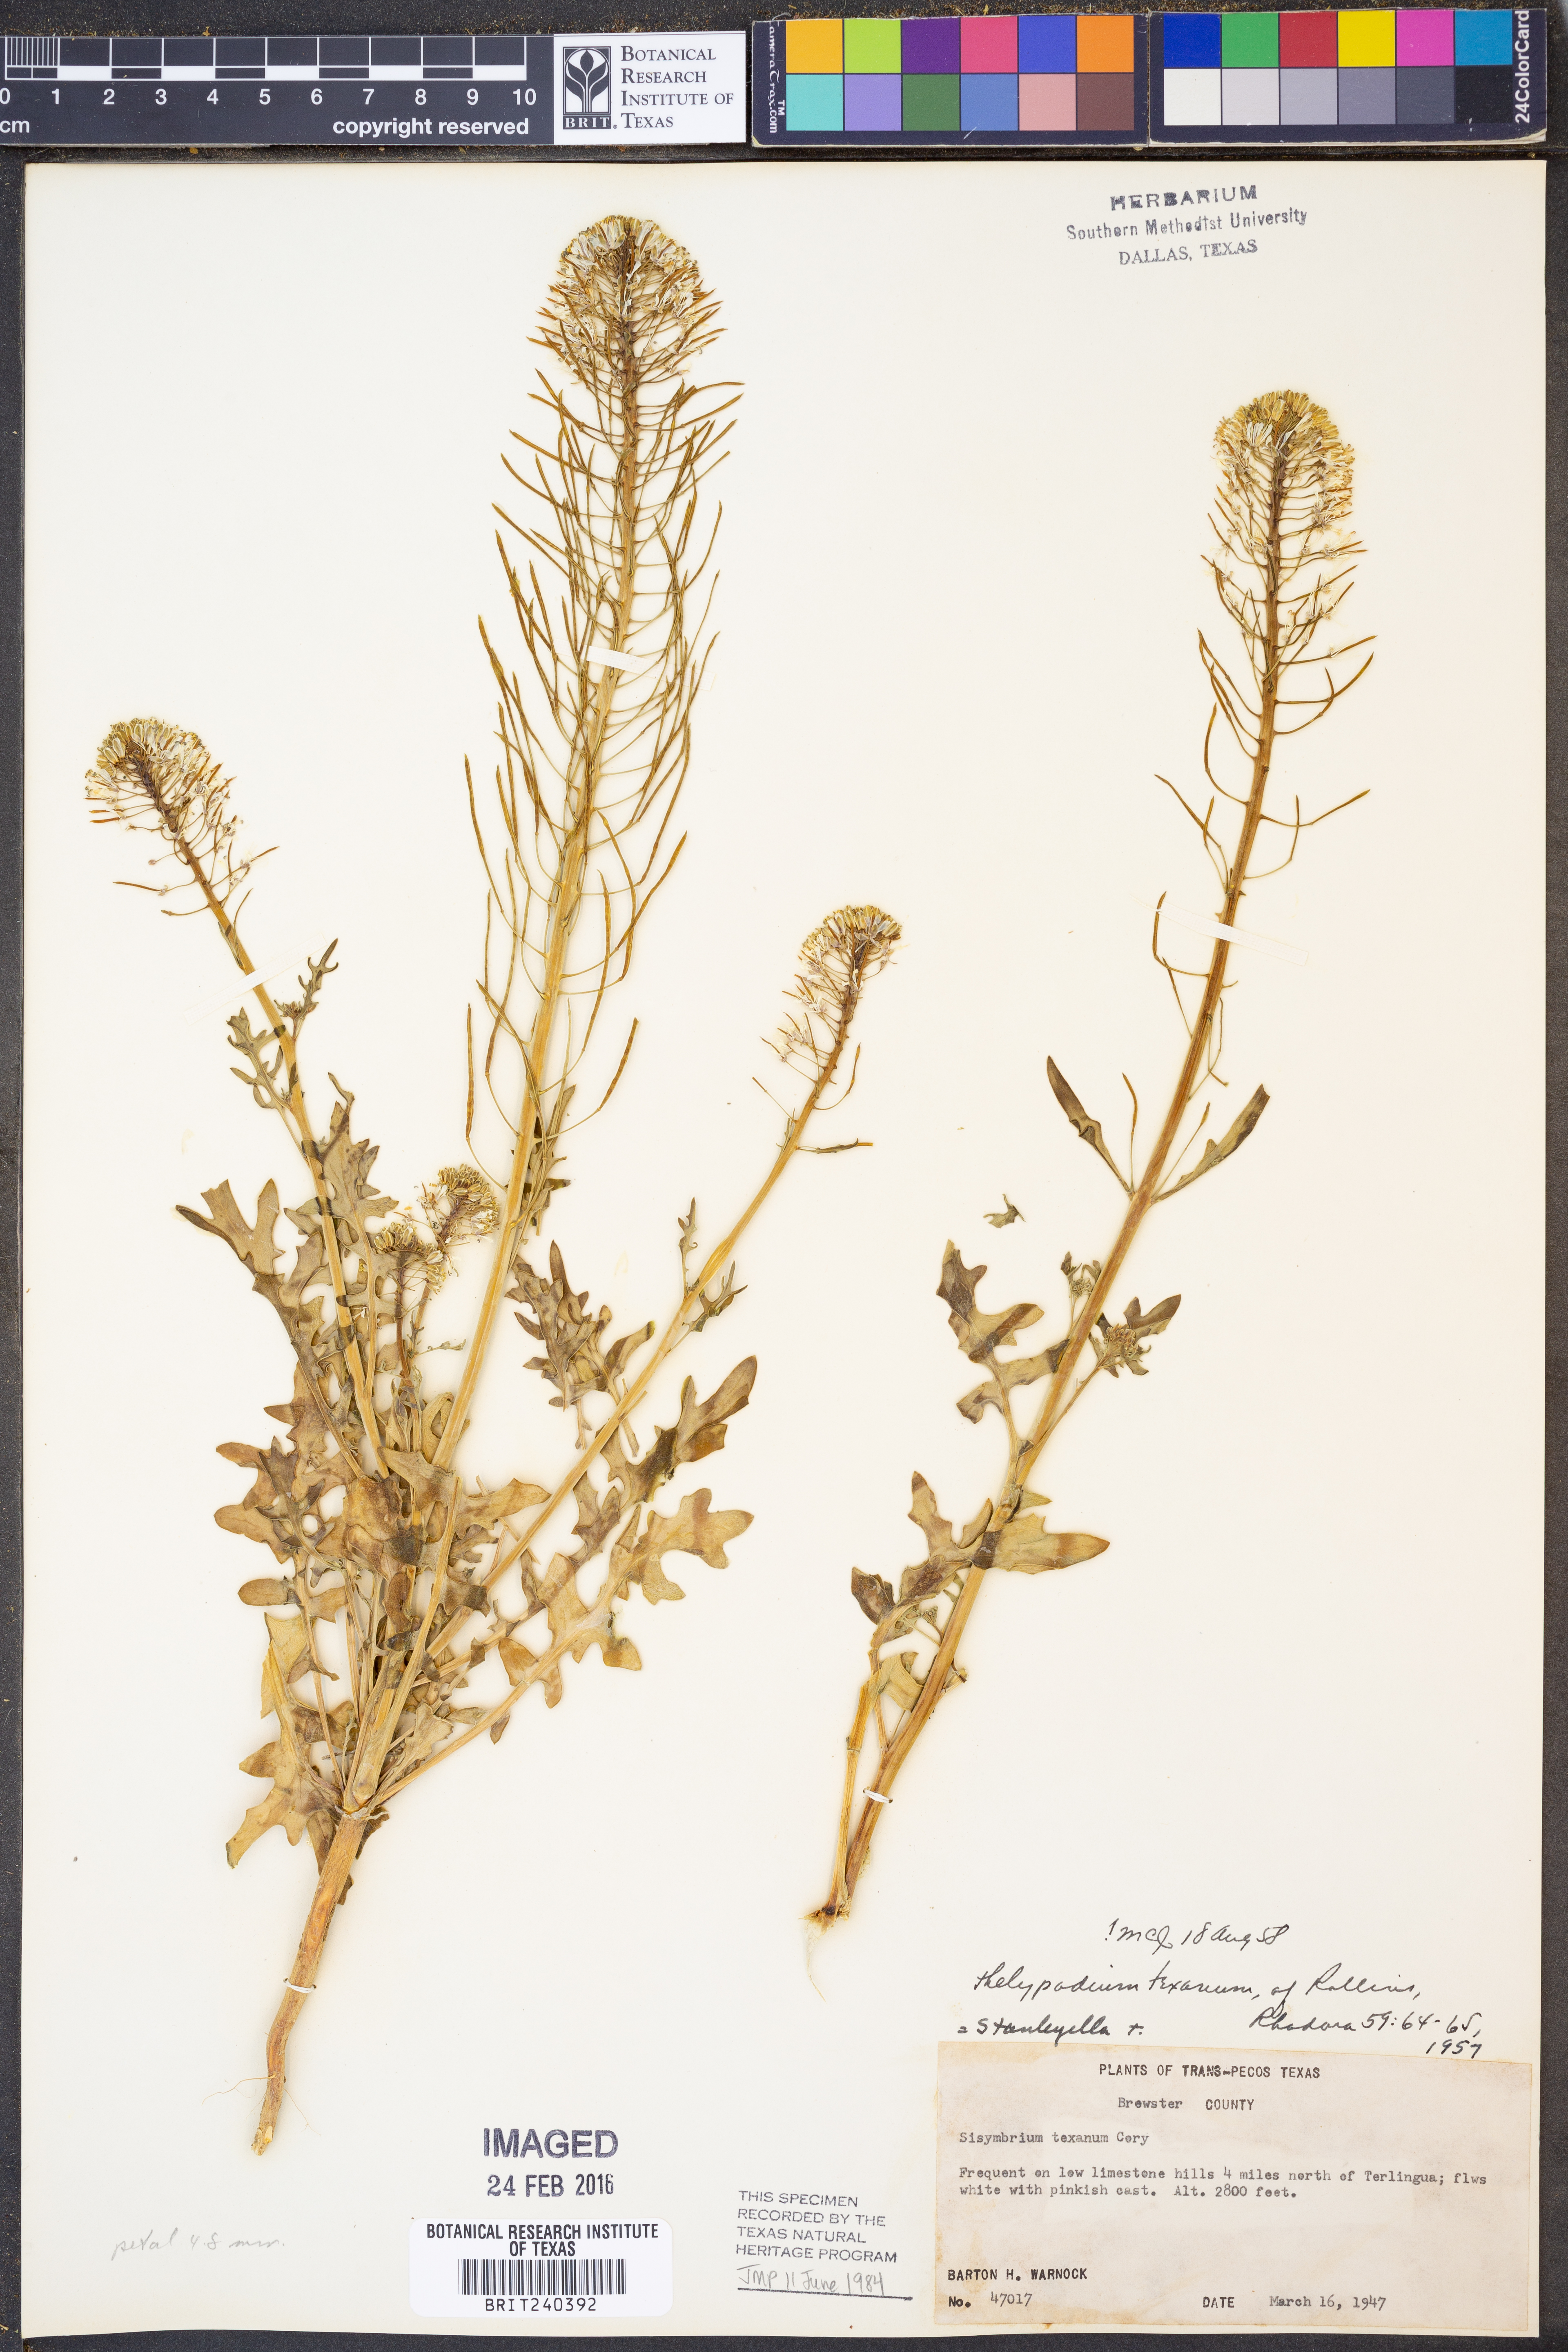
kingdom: Plantae
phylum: Tracheophyta
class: Magnoliopsida
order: Brassicales
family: Brassicaceae
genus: Thelypodium
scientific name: Thelypodium texanum
